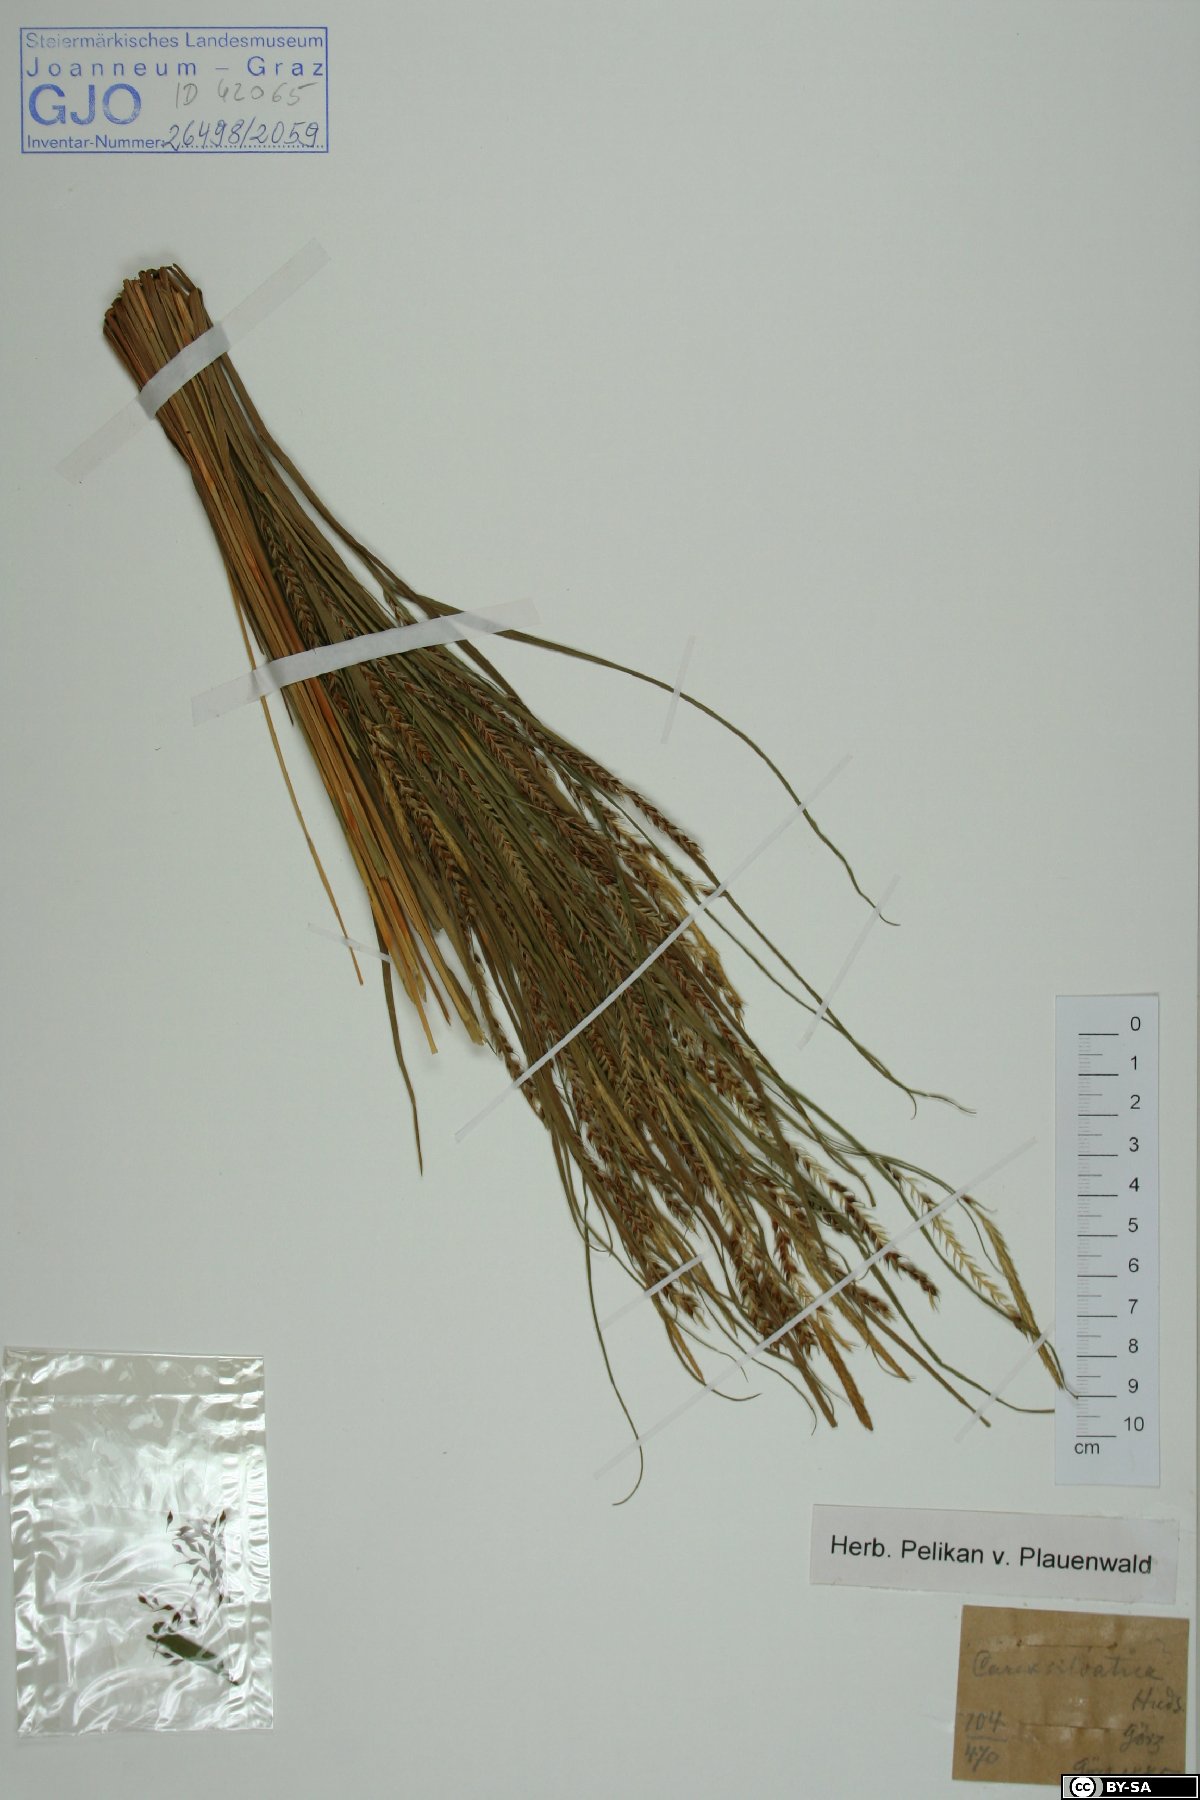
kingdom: Plantae
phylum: Tracheophyta
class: Liliopsida
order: Poales
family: Cyperaceae
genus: Carex
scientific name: Carex sylvatica
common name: Wood-sedge
